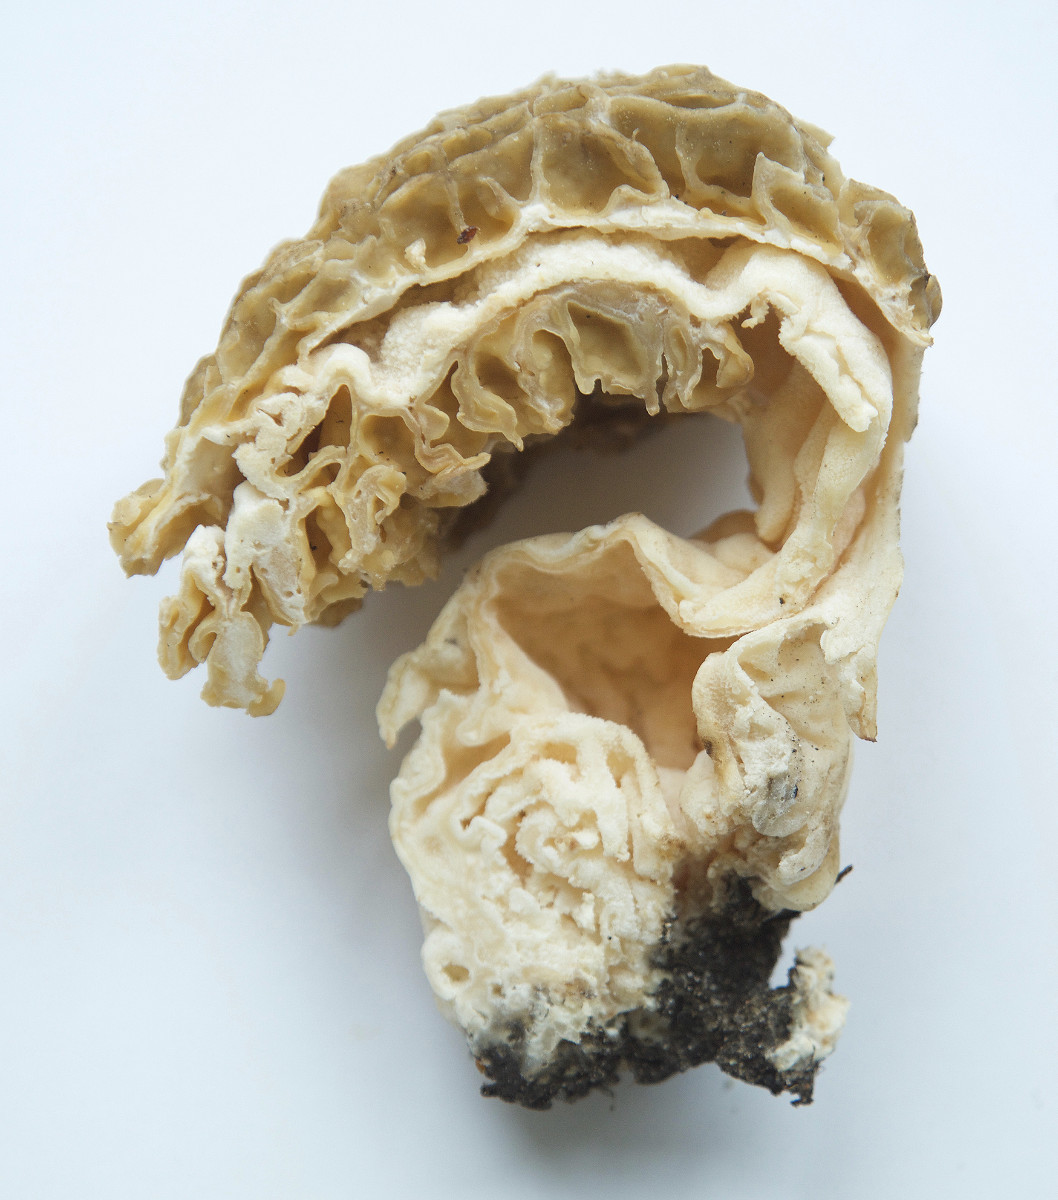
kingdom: Fungi
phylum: Ascomycota
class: Pezizomycetes
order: Pezizales
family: Morchellaceae
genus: Morchella
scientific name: Morchella
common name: morkel
